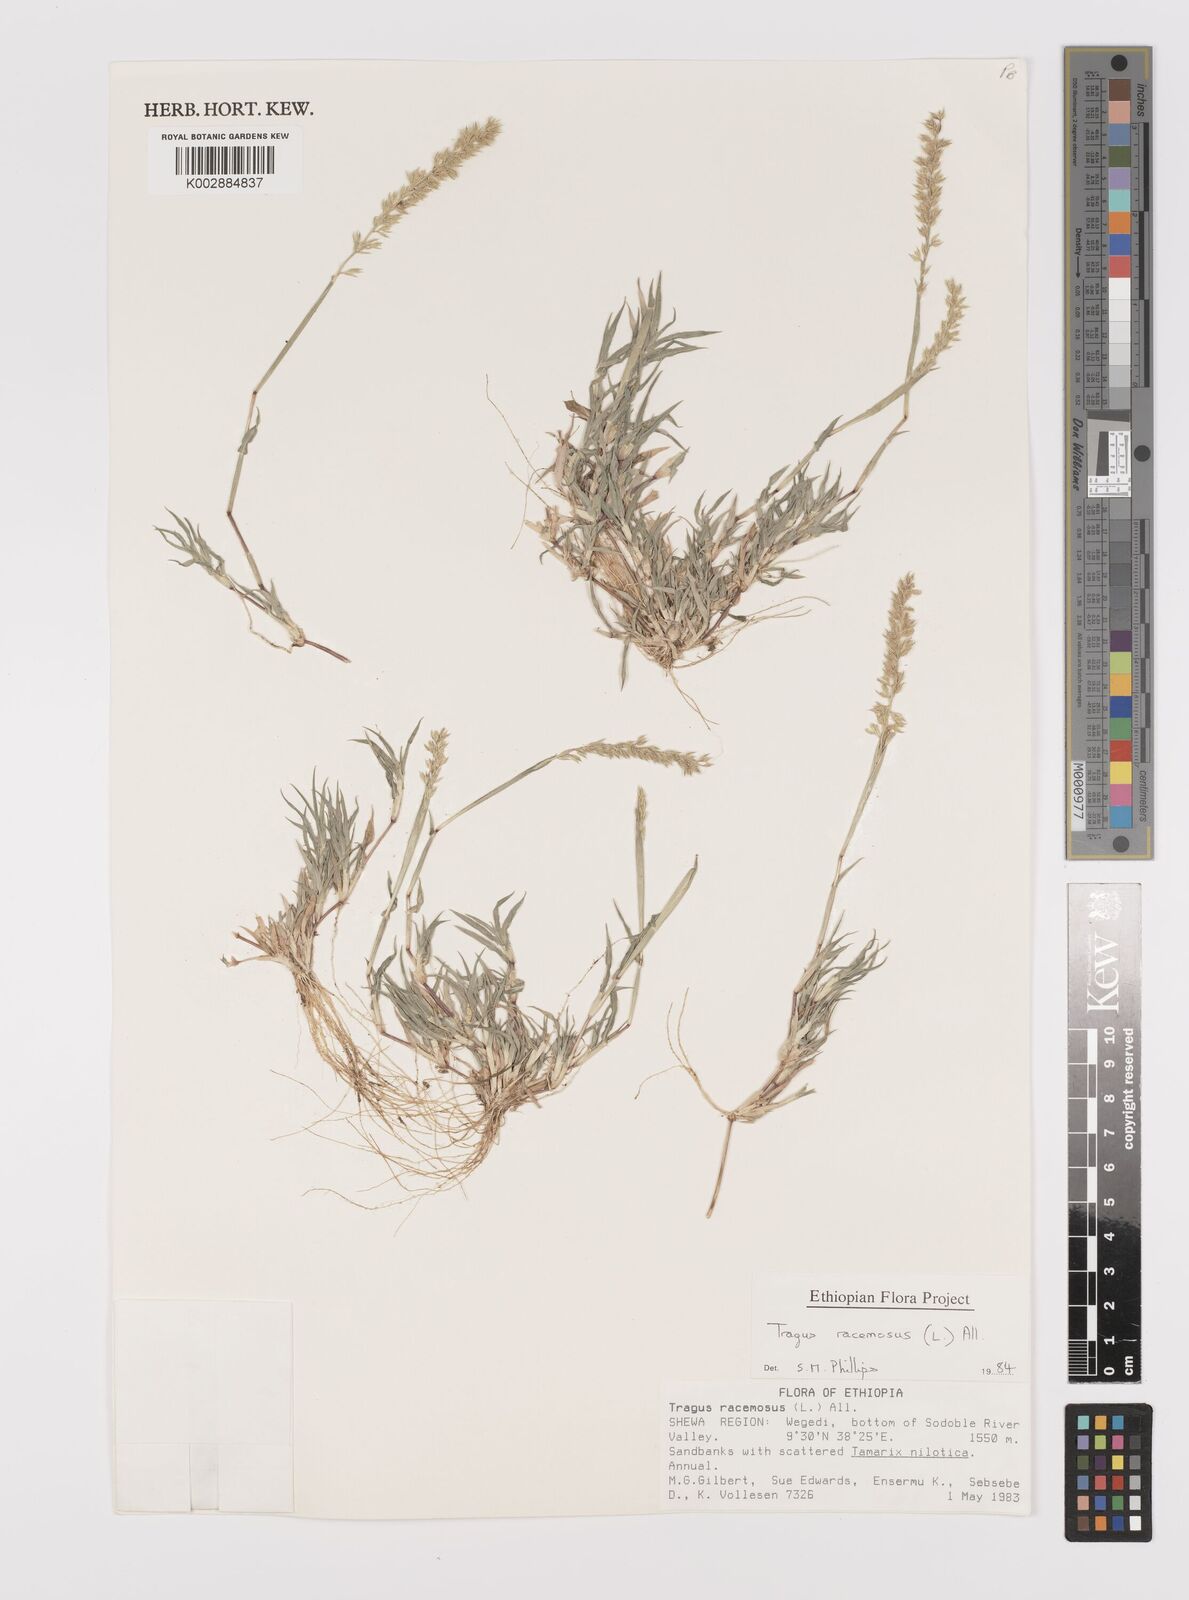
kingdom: Plantae
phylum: Tracheophyta
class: Liliopsida
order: Poales
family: Poaceae
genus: Tragus
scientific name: Tragus racemosus
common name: European bur-grass
